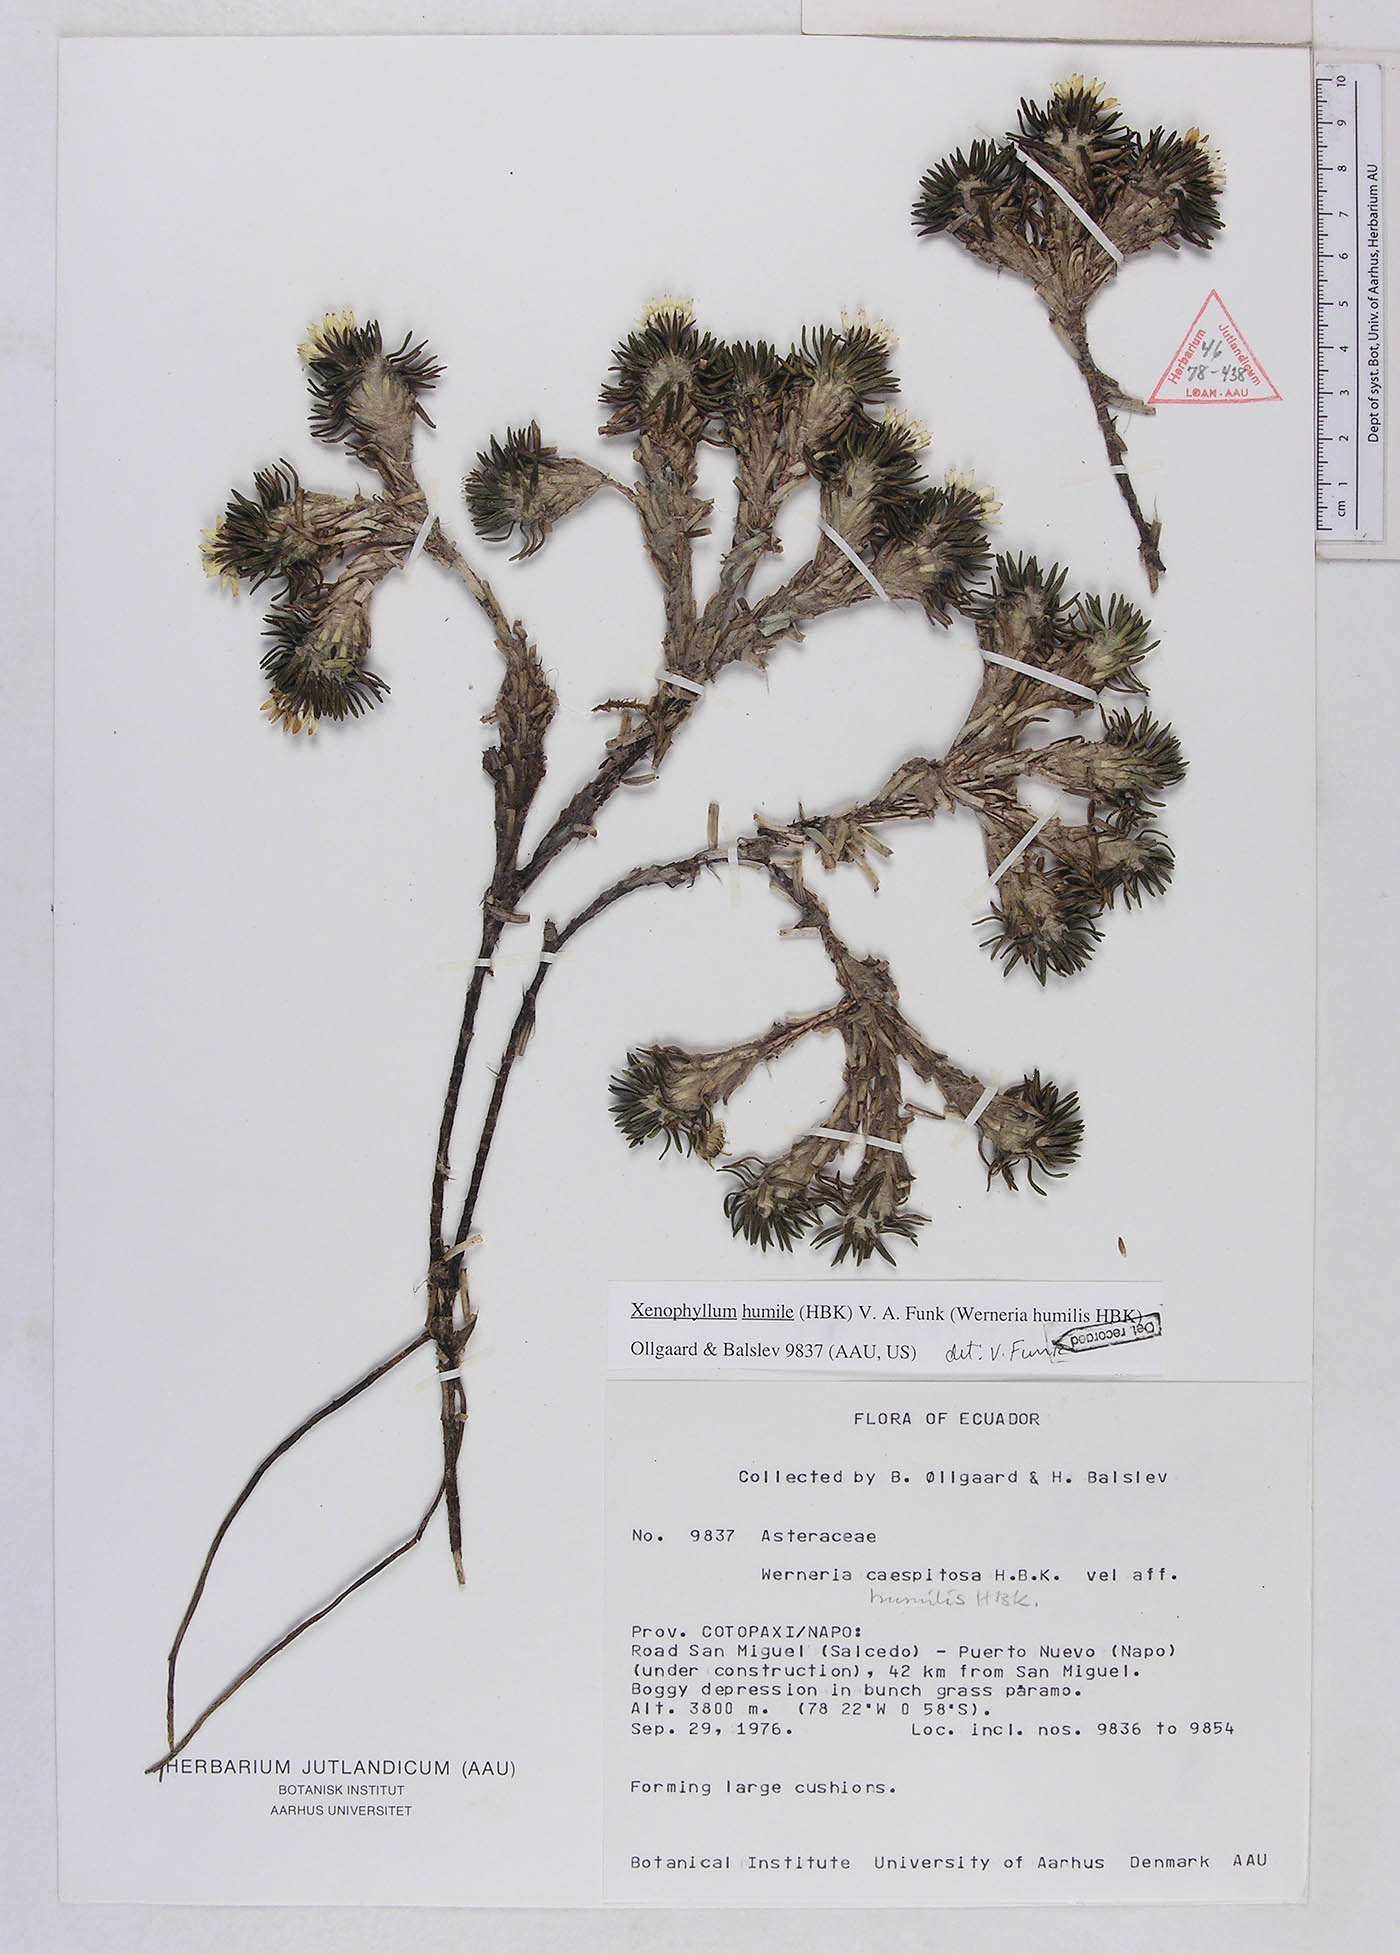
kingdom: Plantae
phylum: Tracheophyta
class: Magnoliopsida
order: Asterales
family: Asteraceae
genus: Werneria
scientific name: Werneria humilis
